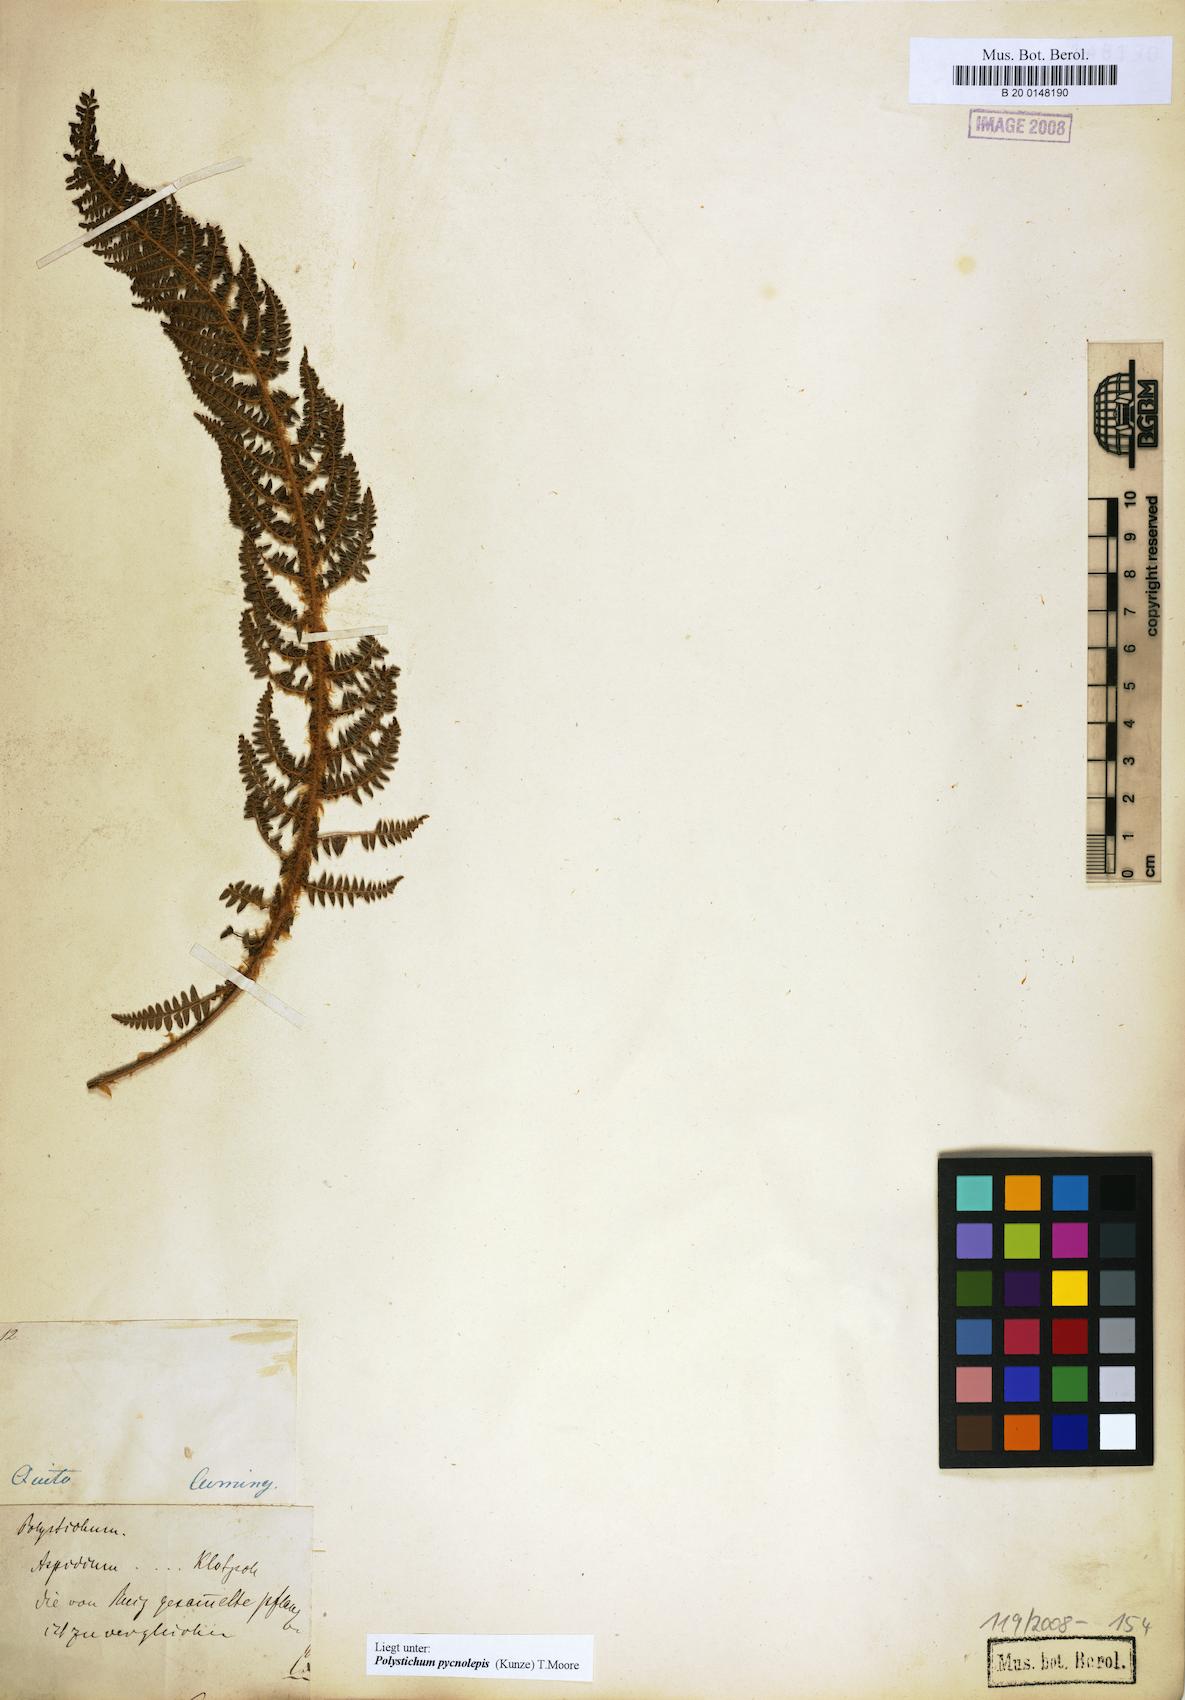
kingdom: Plantae
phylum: Tracheophyta
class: Polypodiopsida
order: Polypodiales
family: Dryopteridaceae
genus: Polystichum
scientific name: Polystichum pycnolepis
